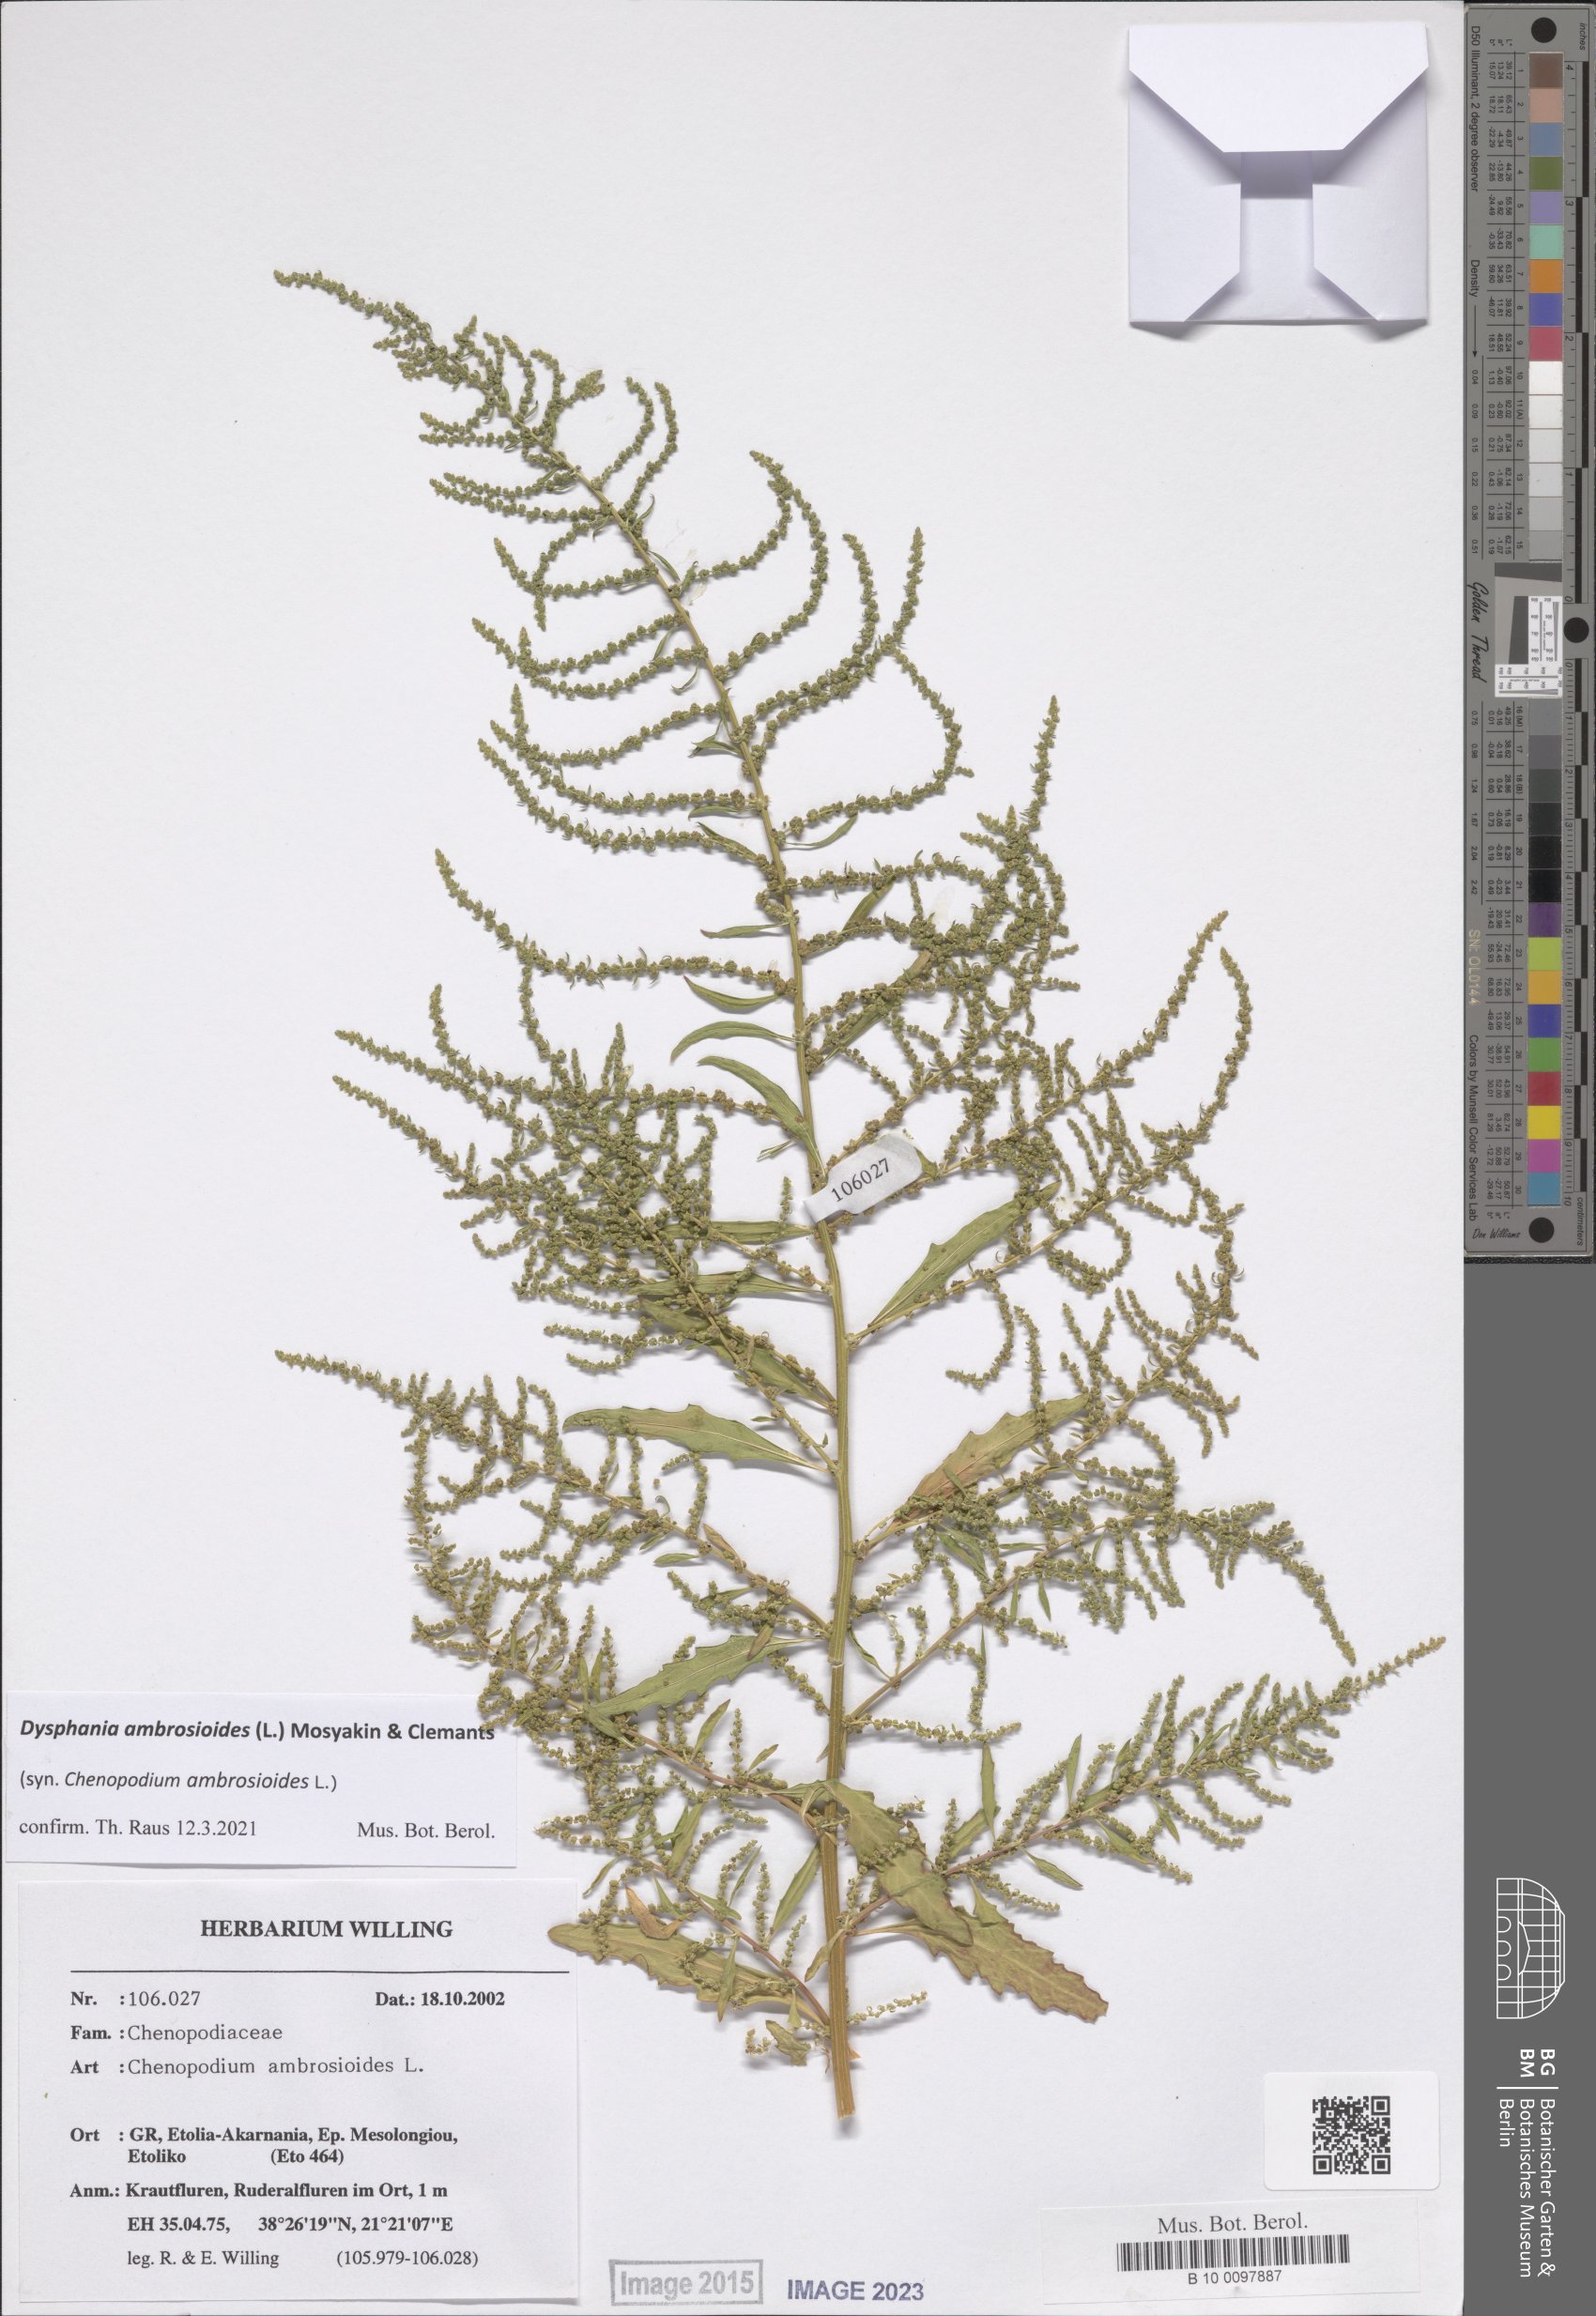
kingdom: Plantae
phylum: Tracheophyta
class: Magnoliopsida
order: Caryophyllales
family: Amaranthaceae
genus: Dysphania
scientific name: Dysphania ambrosioides
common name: Wormseed
